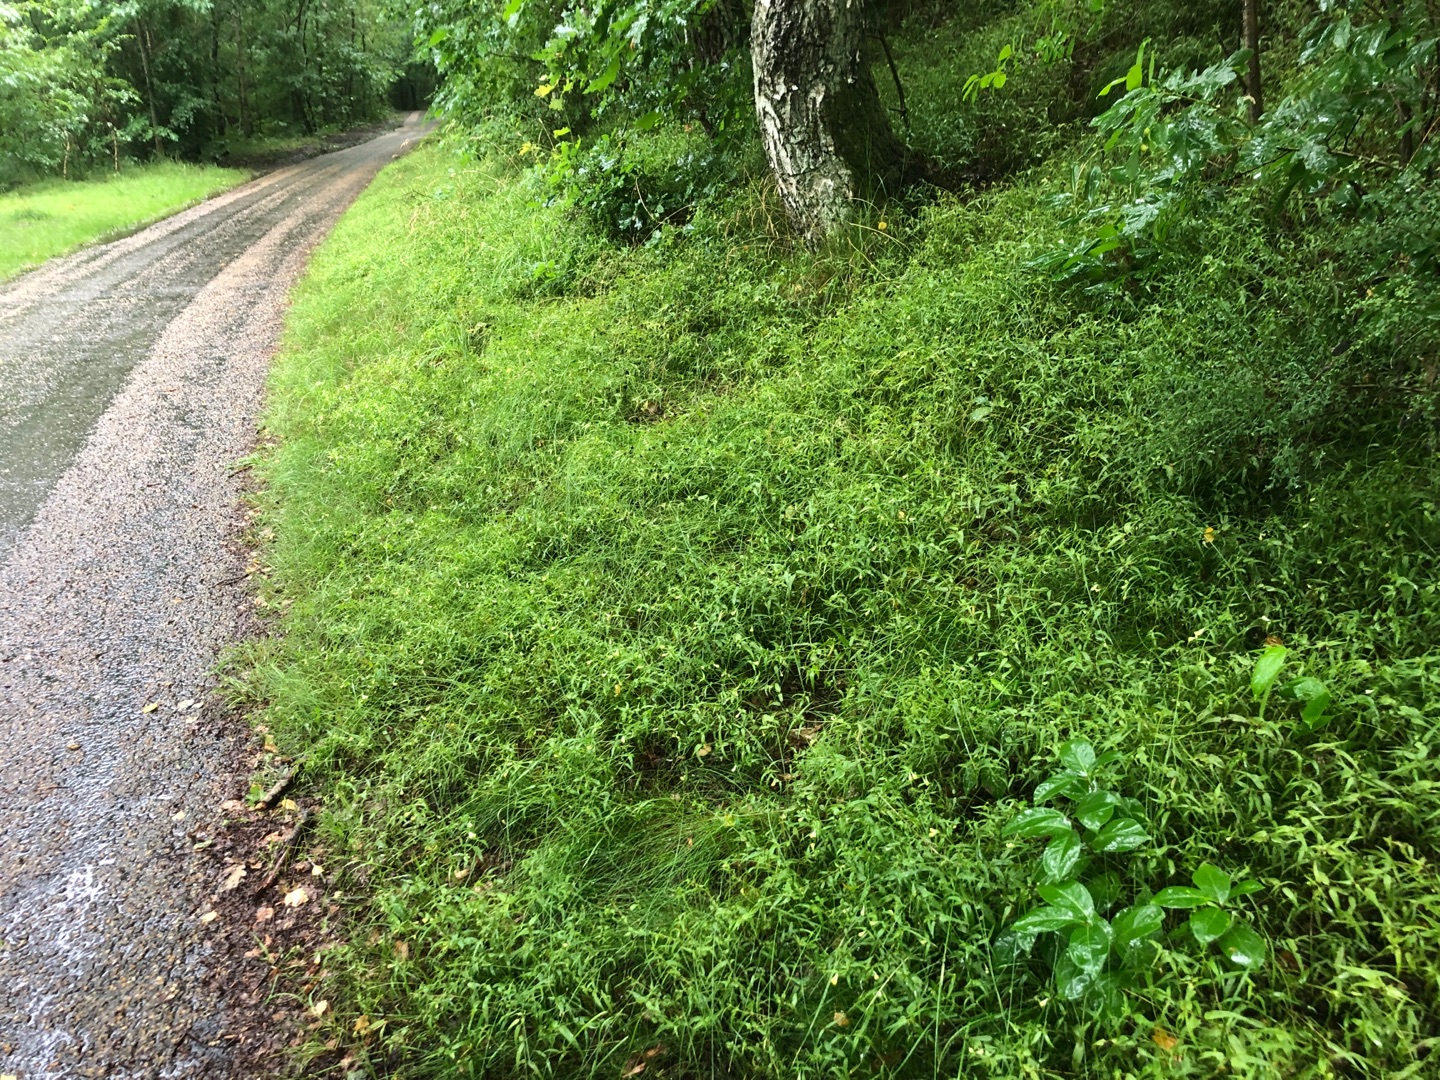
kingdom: Plantae
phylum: Tracheophyta
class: Magnoliopsida
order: Lamiales
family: Orobanchaceae
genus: Melampyrum
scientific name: Melampyrum pratense
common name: Almindelig kohvede
